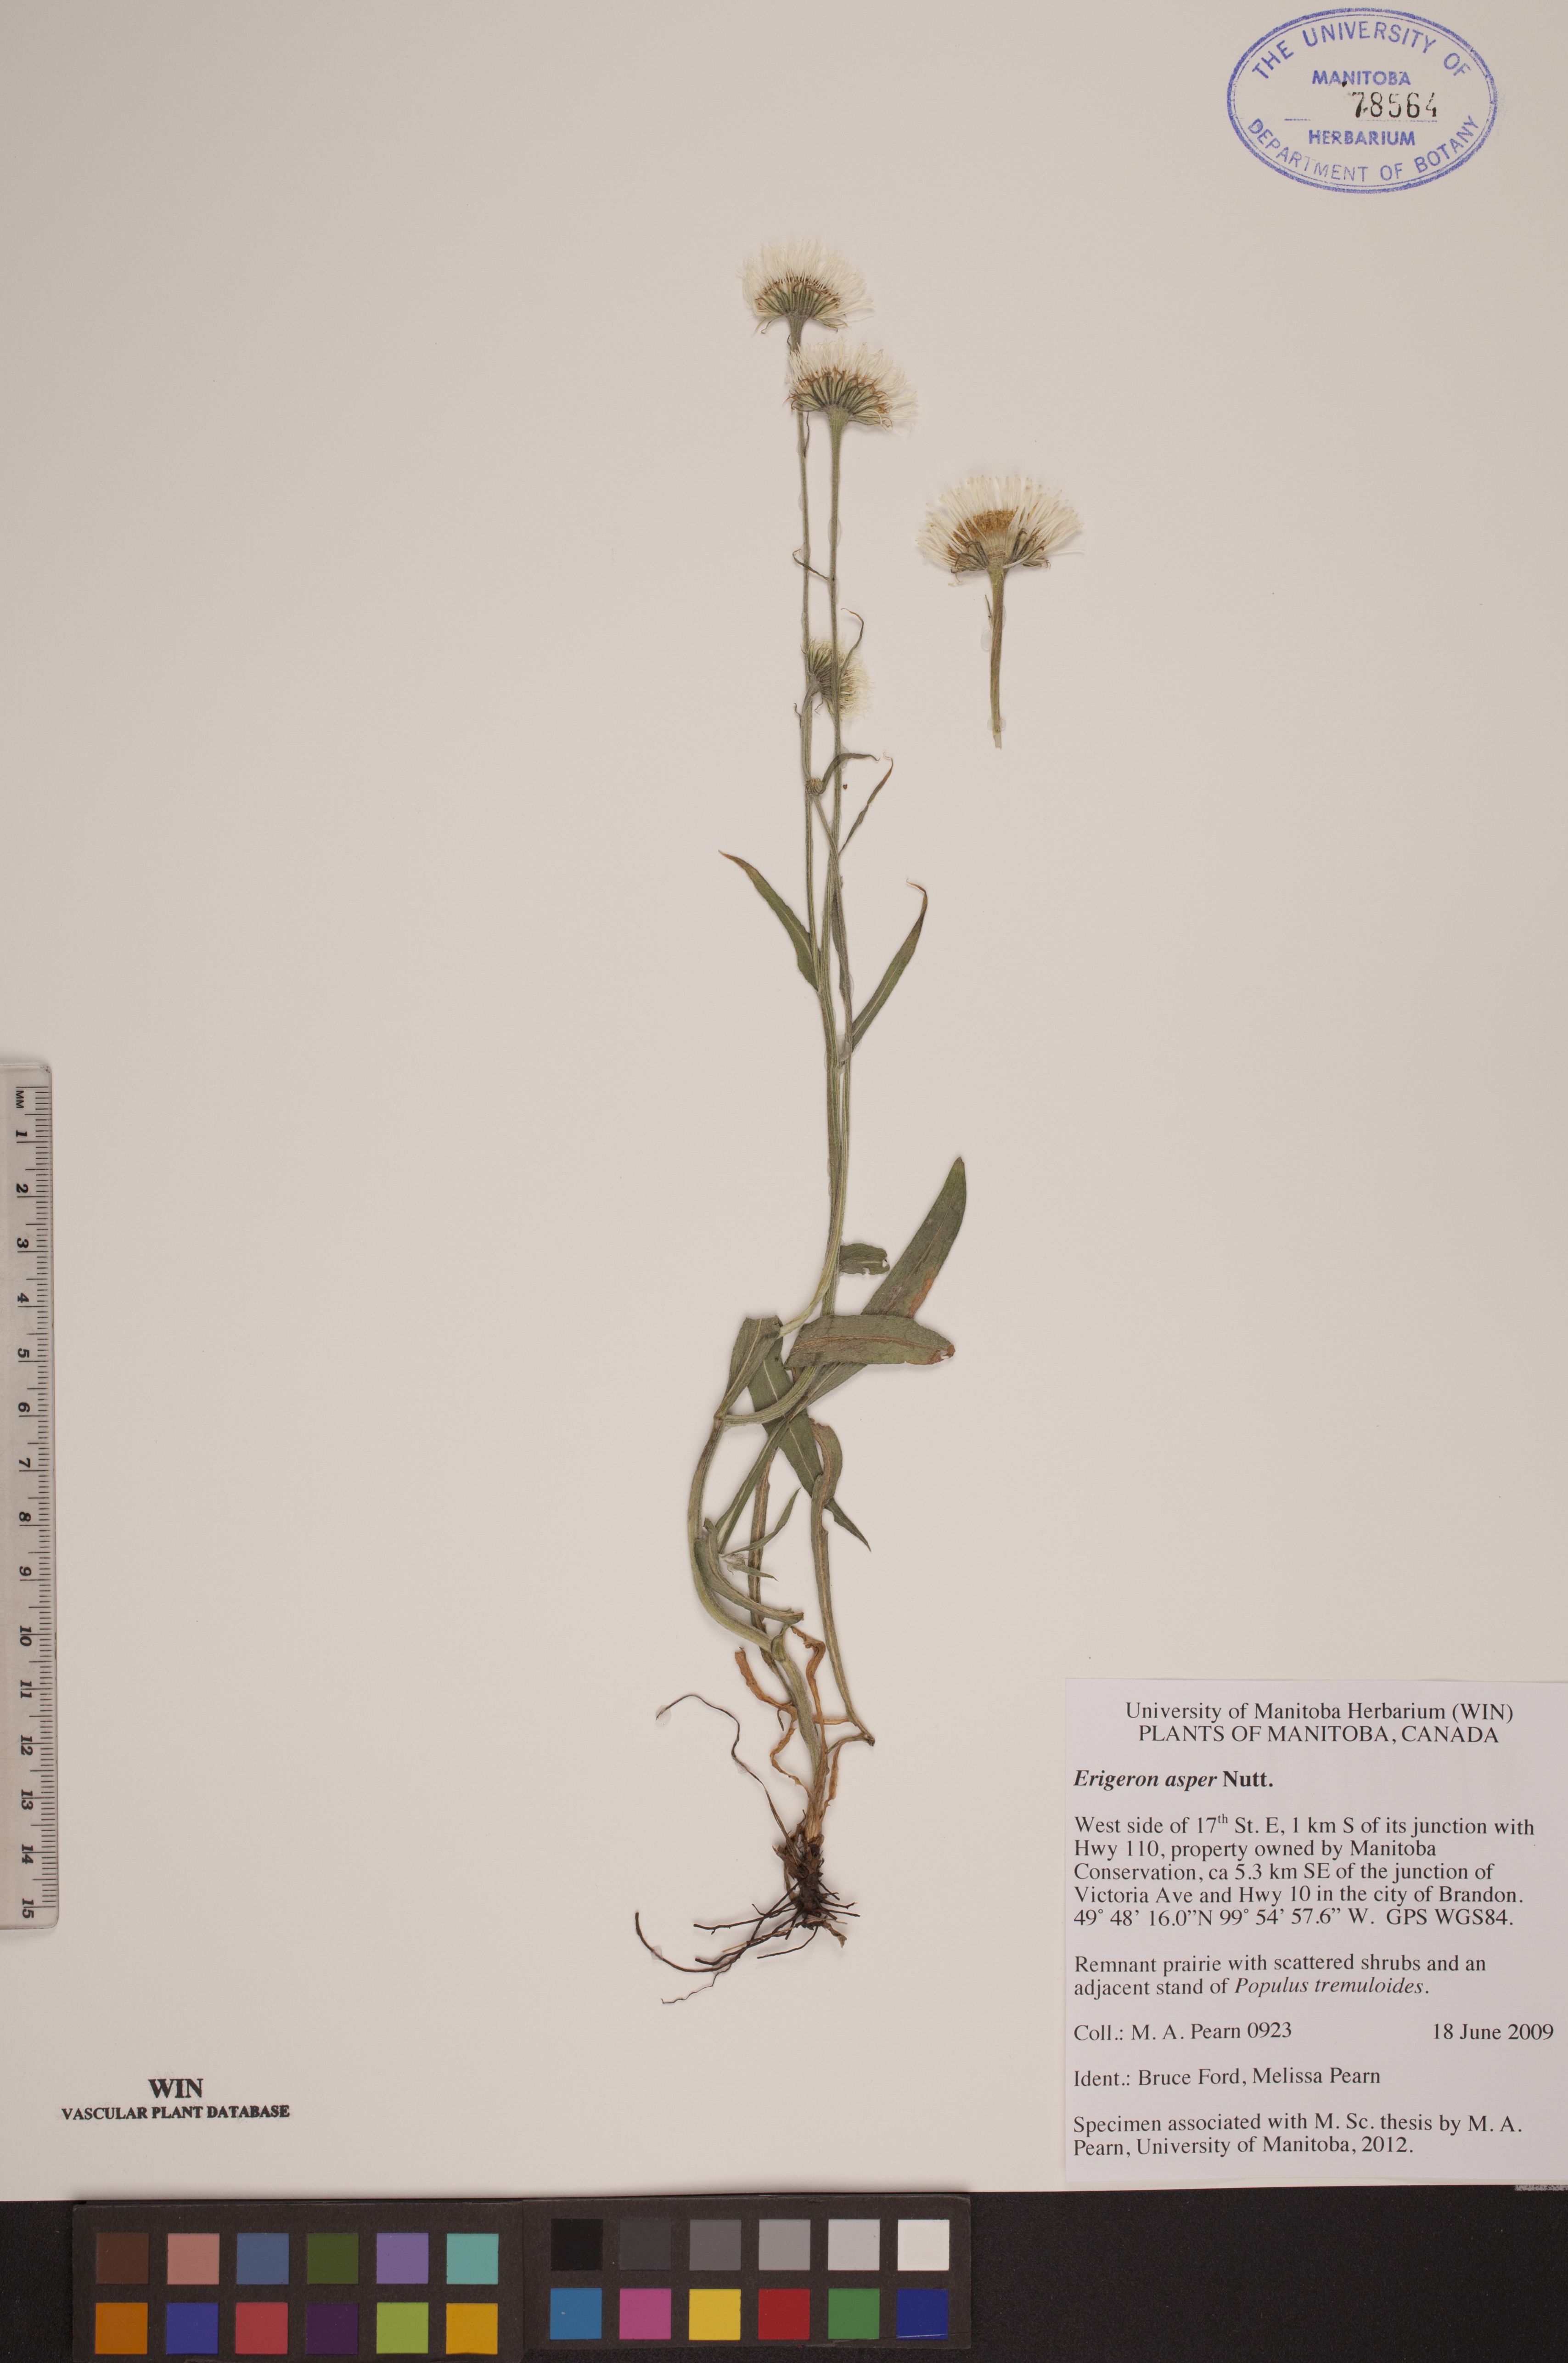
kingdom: Plantae
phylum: Tracheophyta
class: Magnoliopsida
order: Asterales
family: Asteraceae
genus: Erigeron
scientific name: Erigeron glabellus
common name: Smooth fleabane
